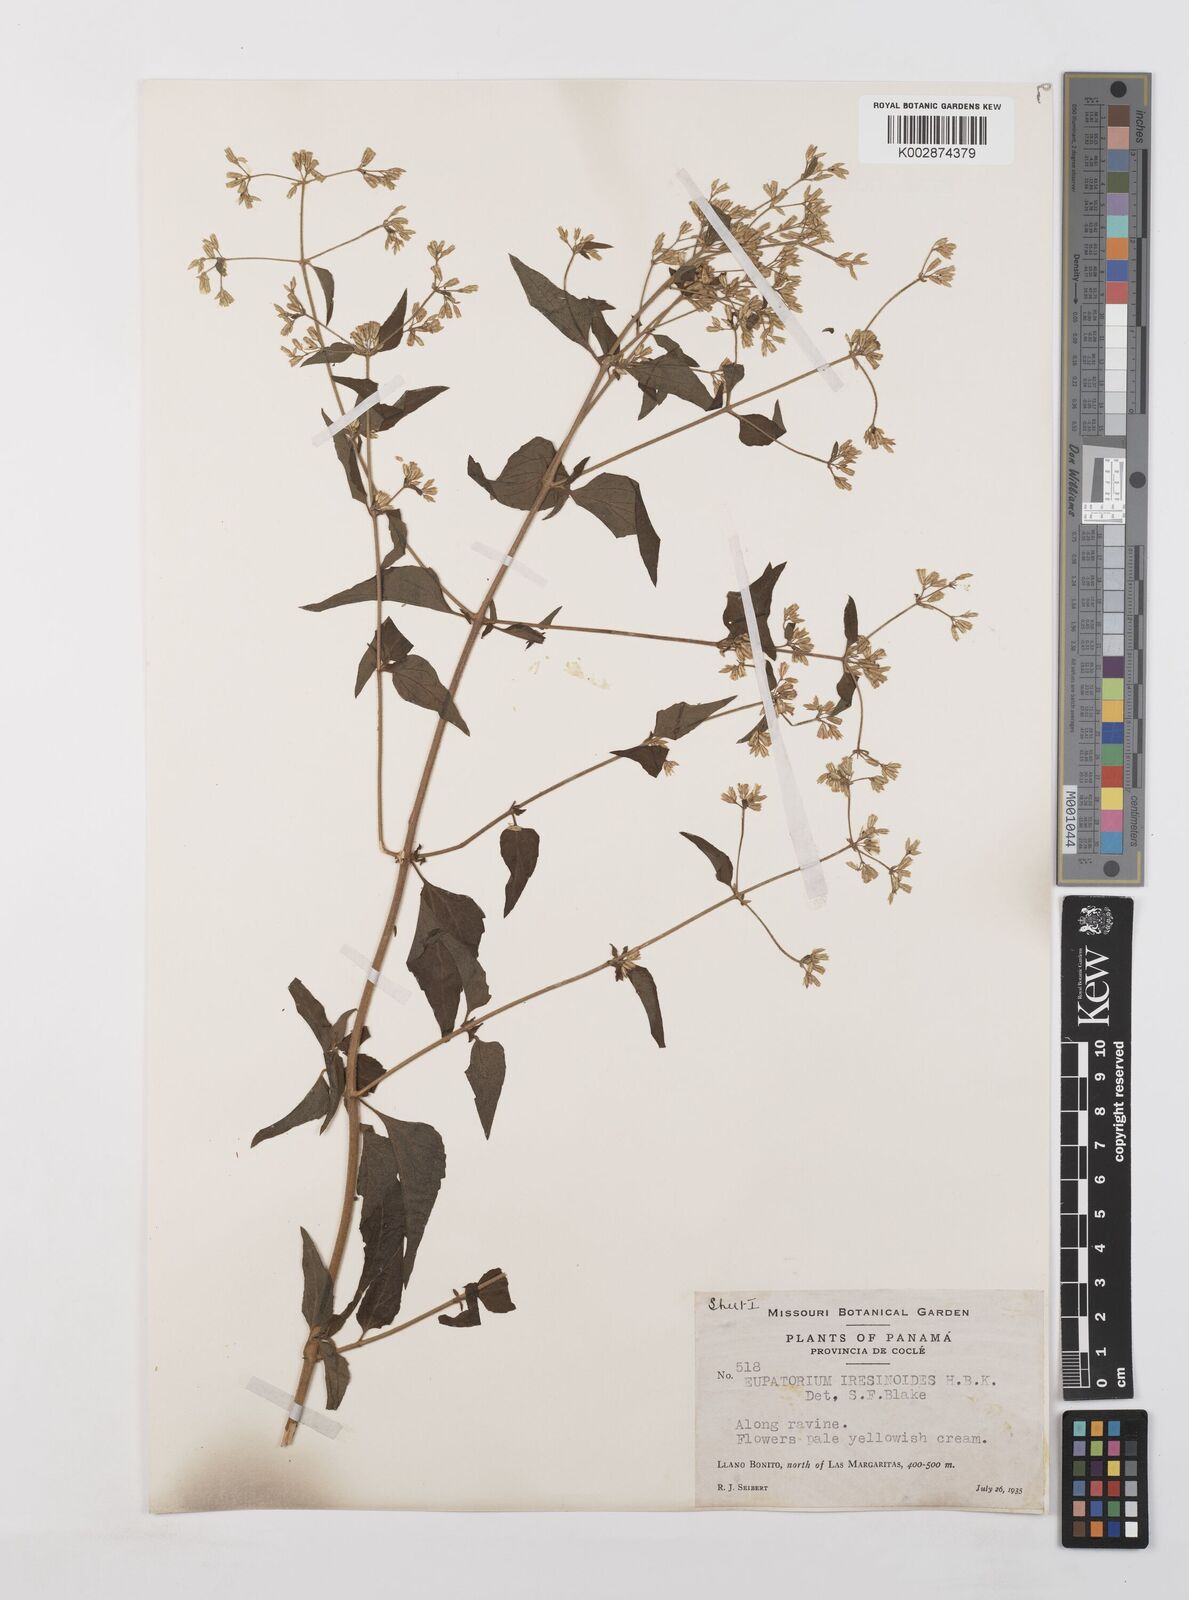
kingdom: Plantae
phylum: Tracheophyta
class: Magnoliopsida
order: Asterales
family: Asteraceae
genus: Condylidium
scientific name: Condylidium iresinoides
